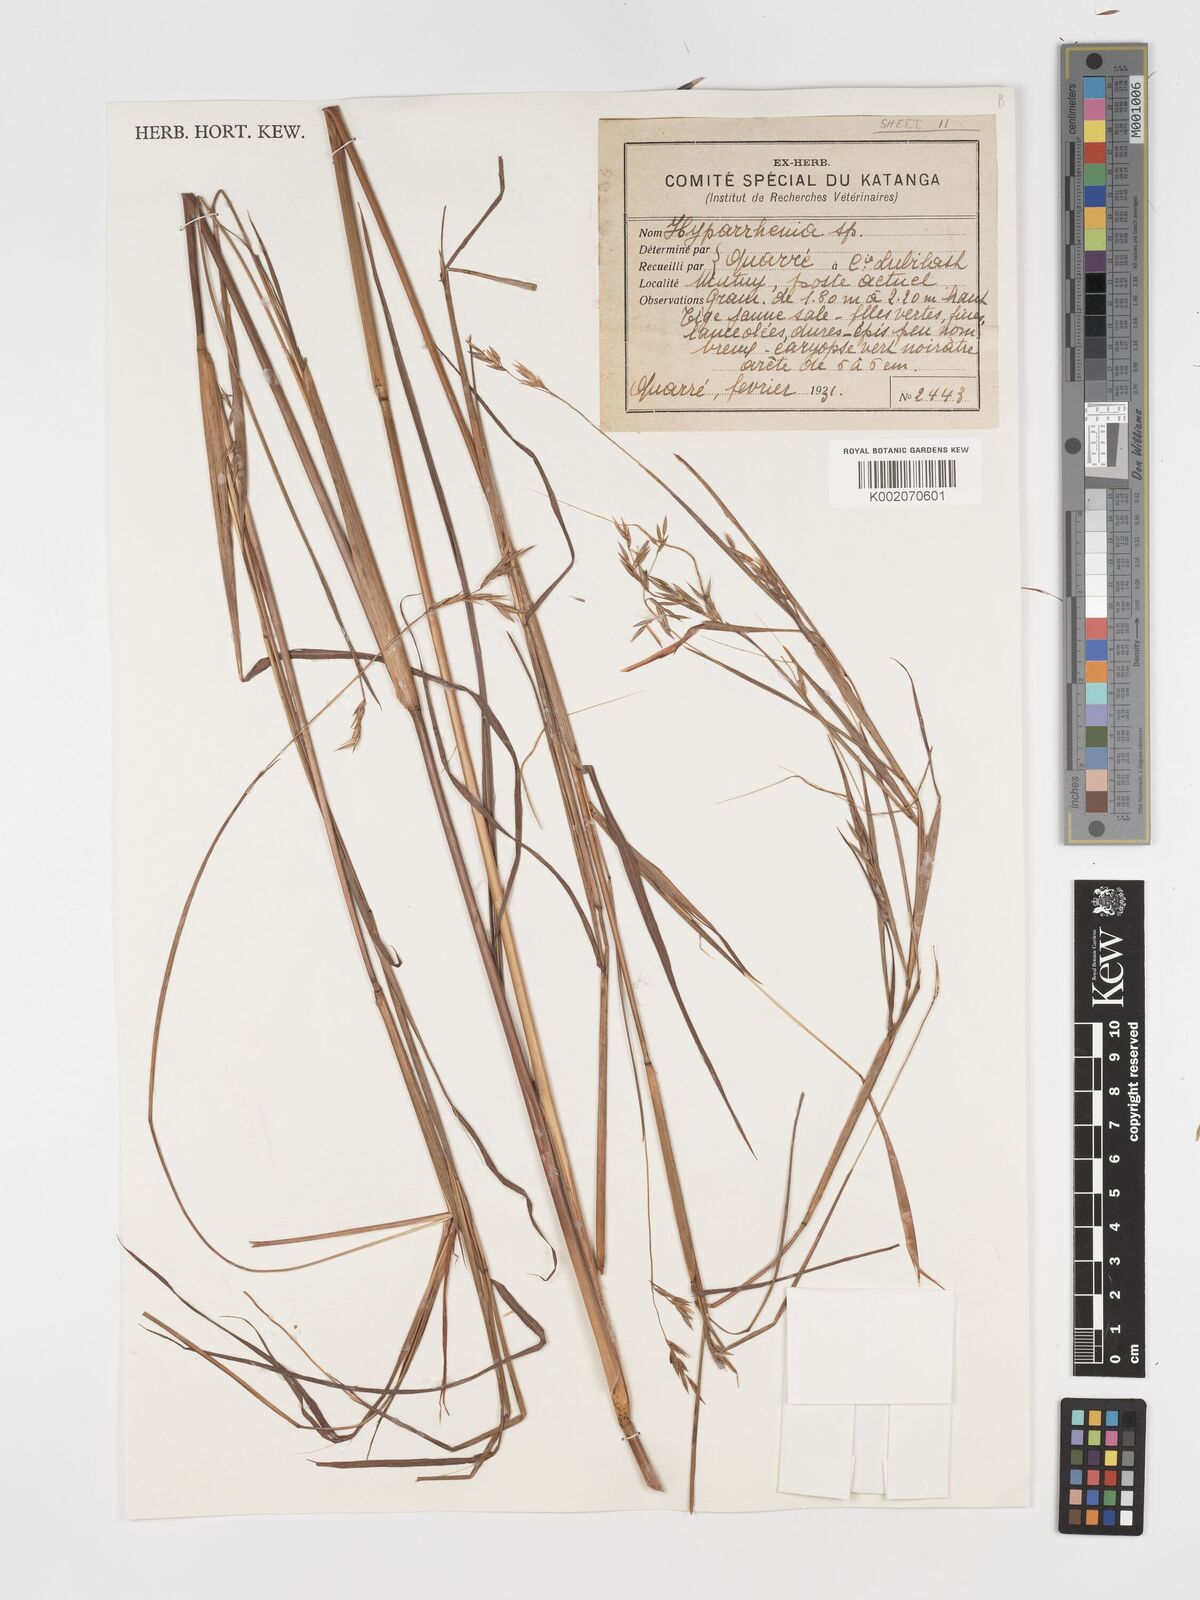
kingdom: Plantae
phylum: Tracheophyta
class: Liliopsida
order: Poales
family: Poaceae
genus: Hyparrhenia
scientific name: Hyparrhenia
